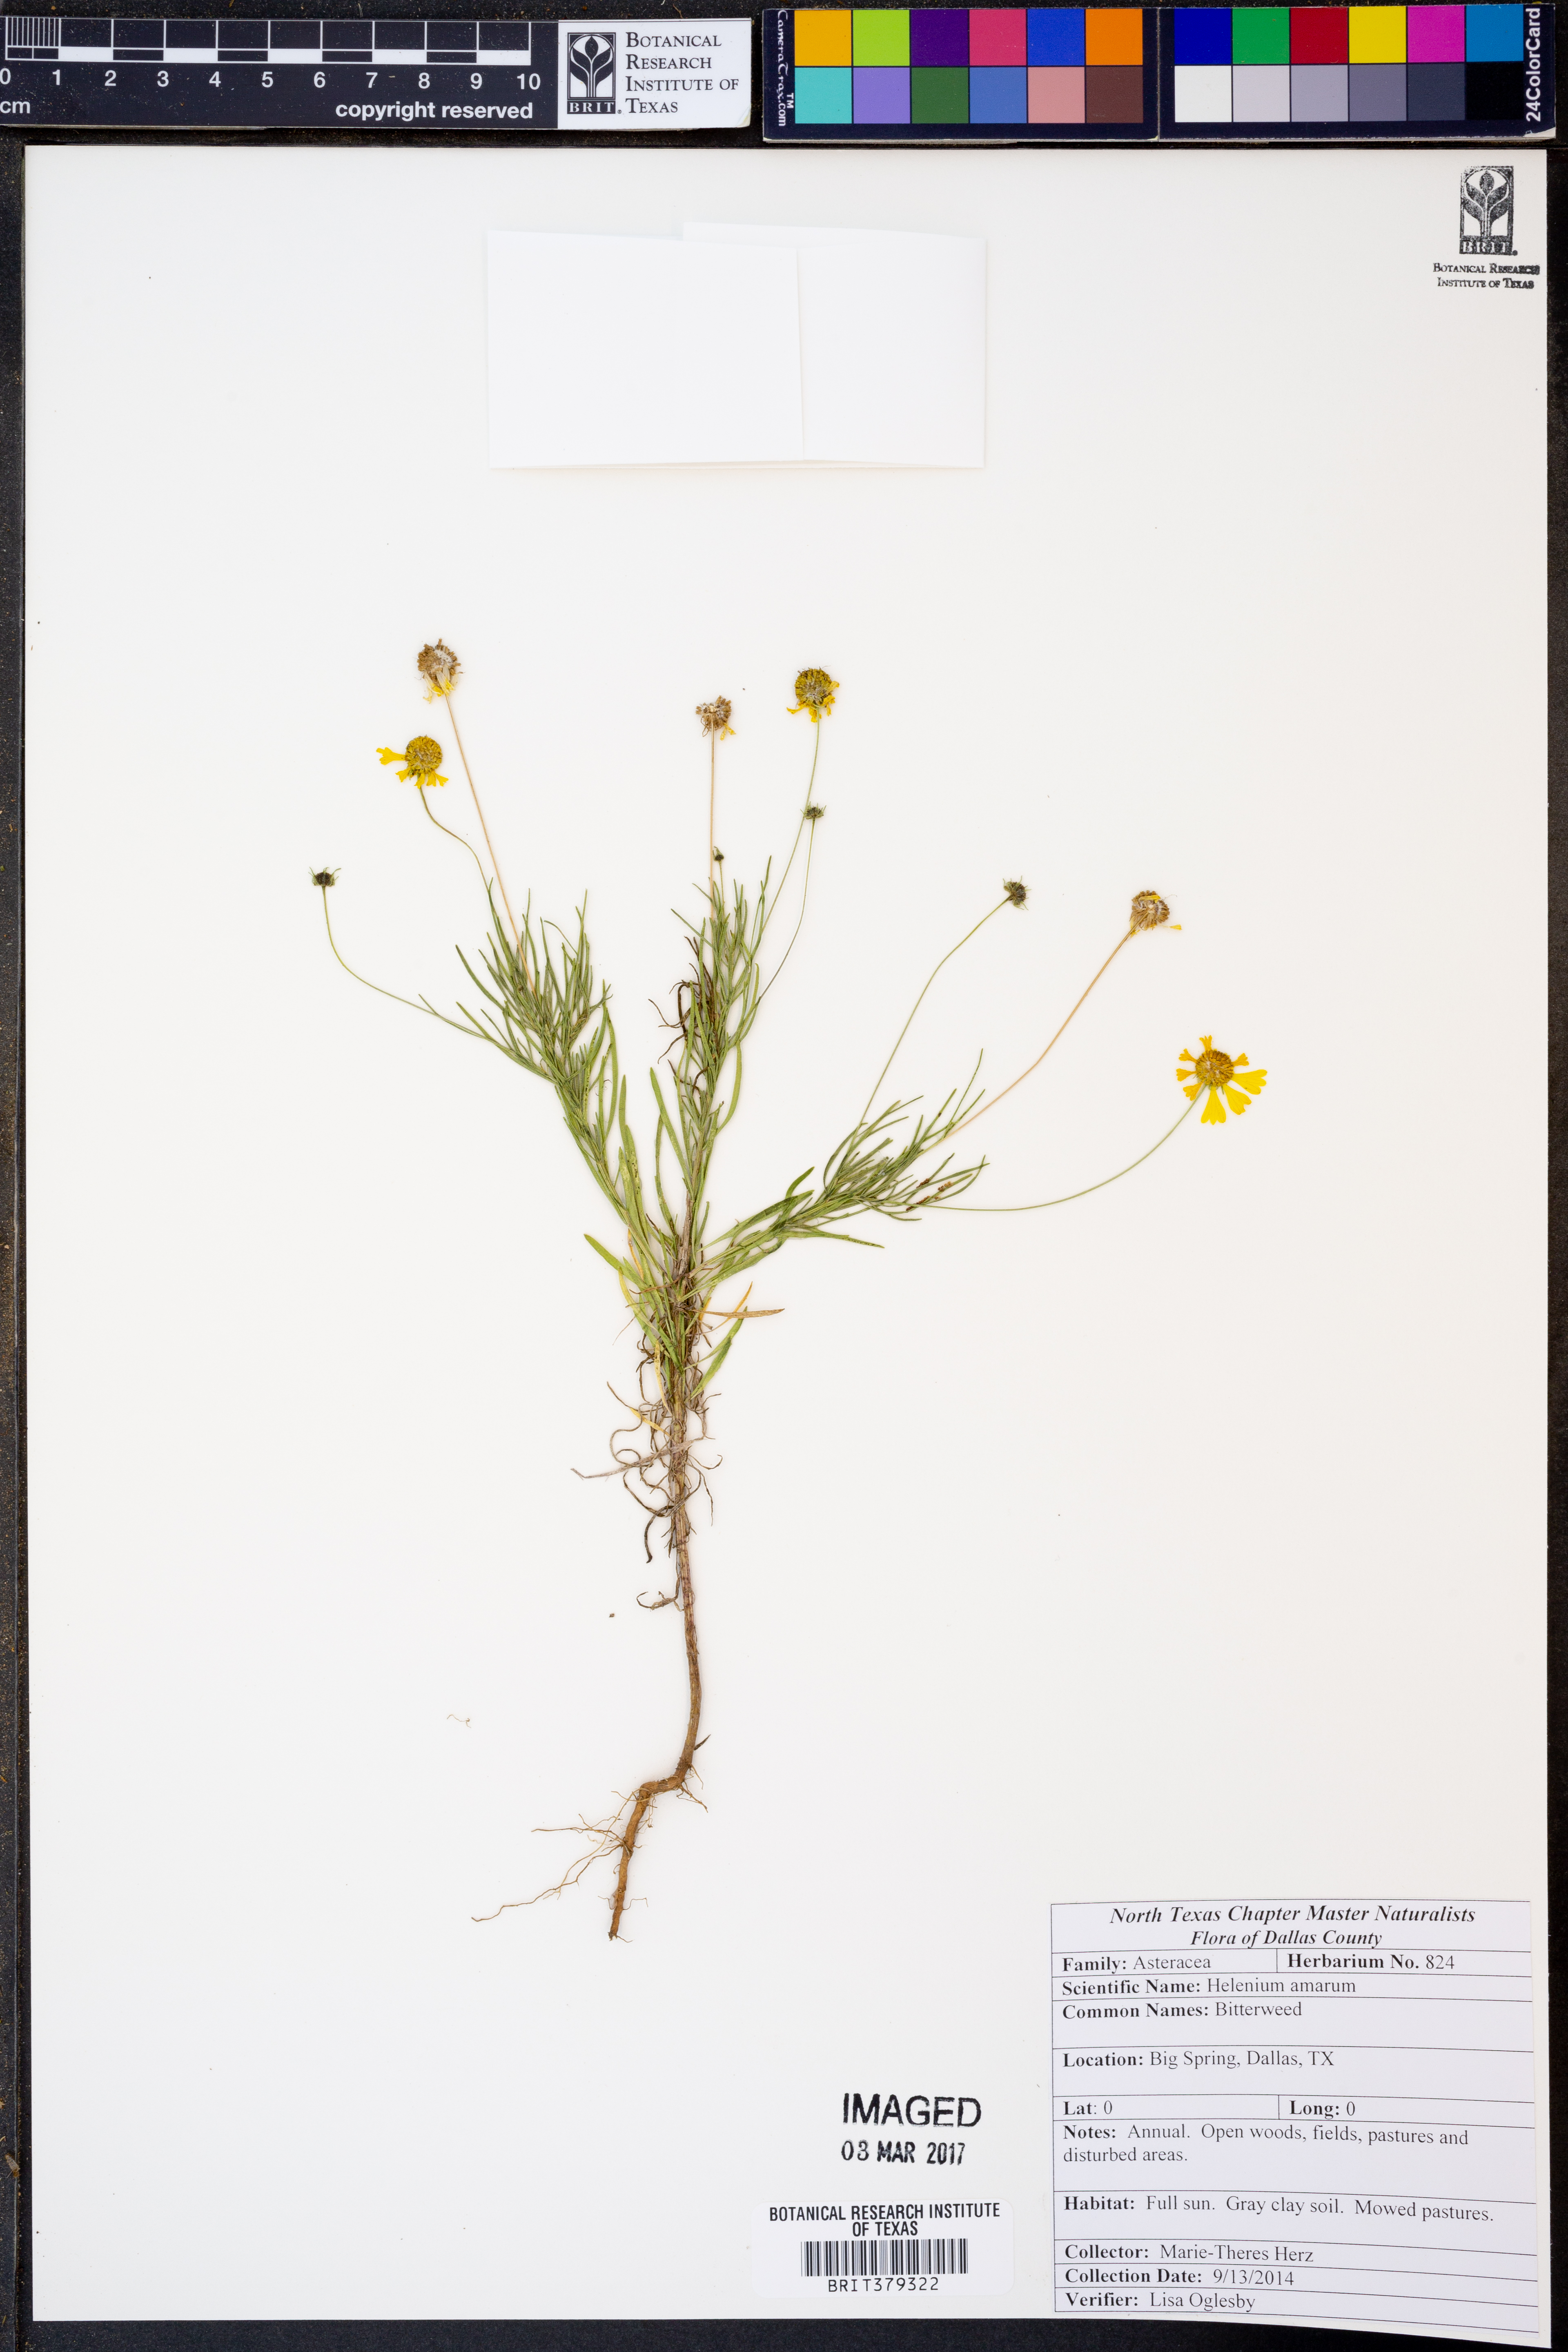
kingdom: Plantae
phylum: Tracheophyta
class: Magnoliopsida
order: Asterales
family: Asteraceae
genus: Helenium
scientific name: Helenium amarum
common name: Bitter sneezeweed
